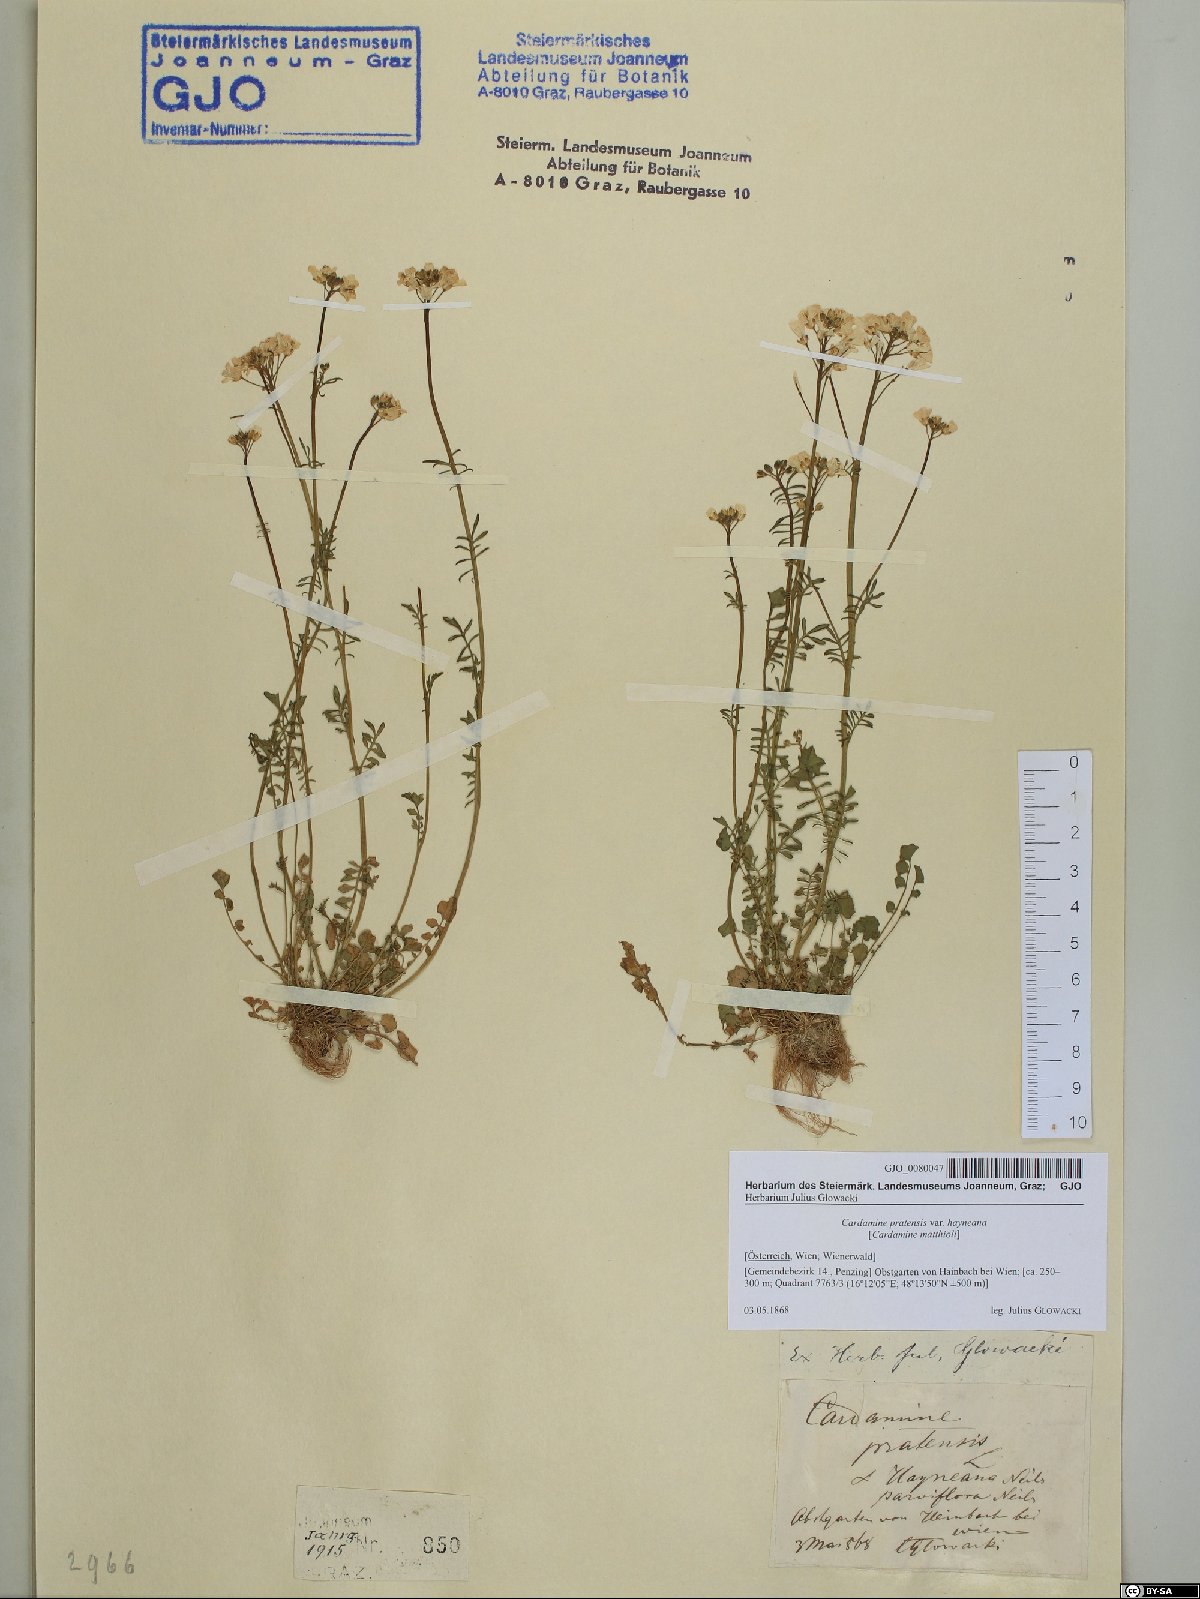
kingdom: Plantae
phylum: Tracheophyta
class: Magnoliopsida
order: Brassicales
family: Brassicaceae
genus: Cardamine
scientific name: Cardamine matthioli
